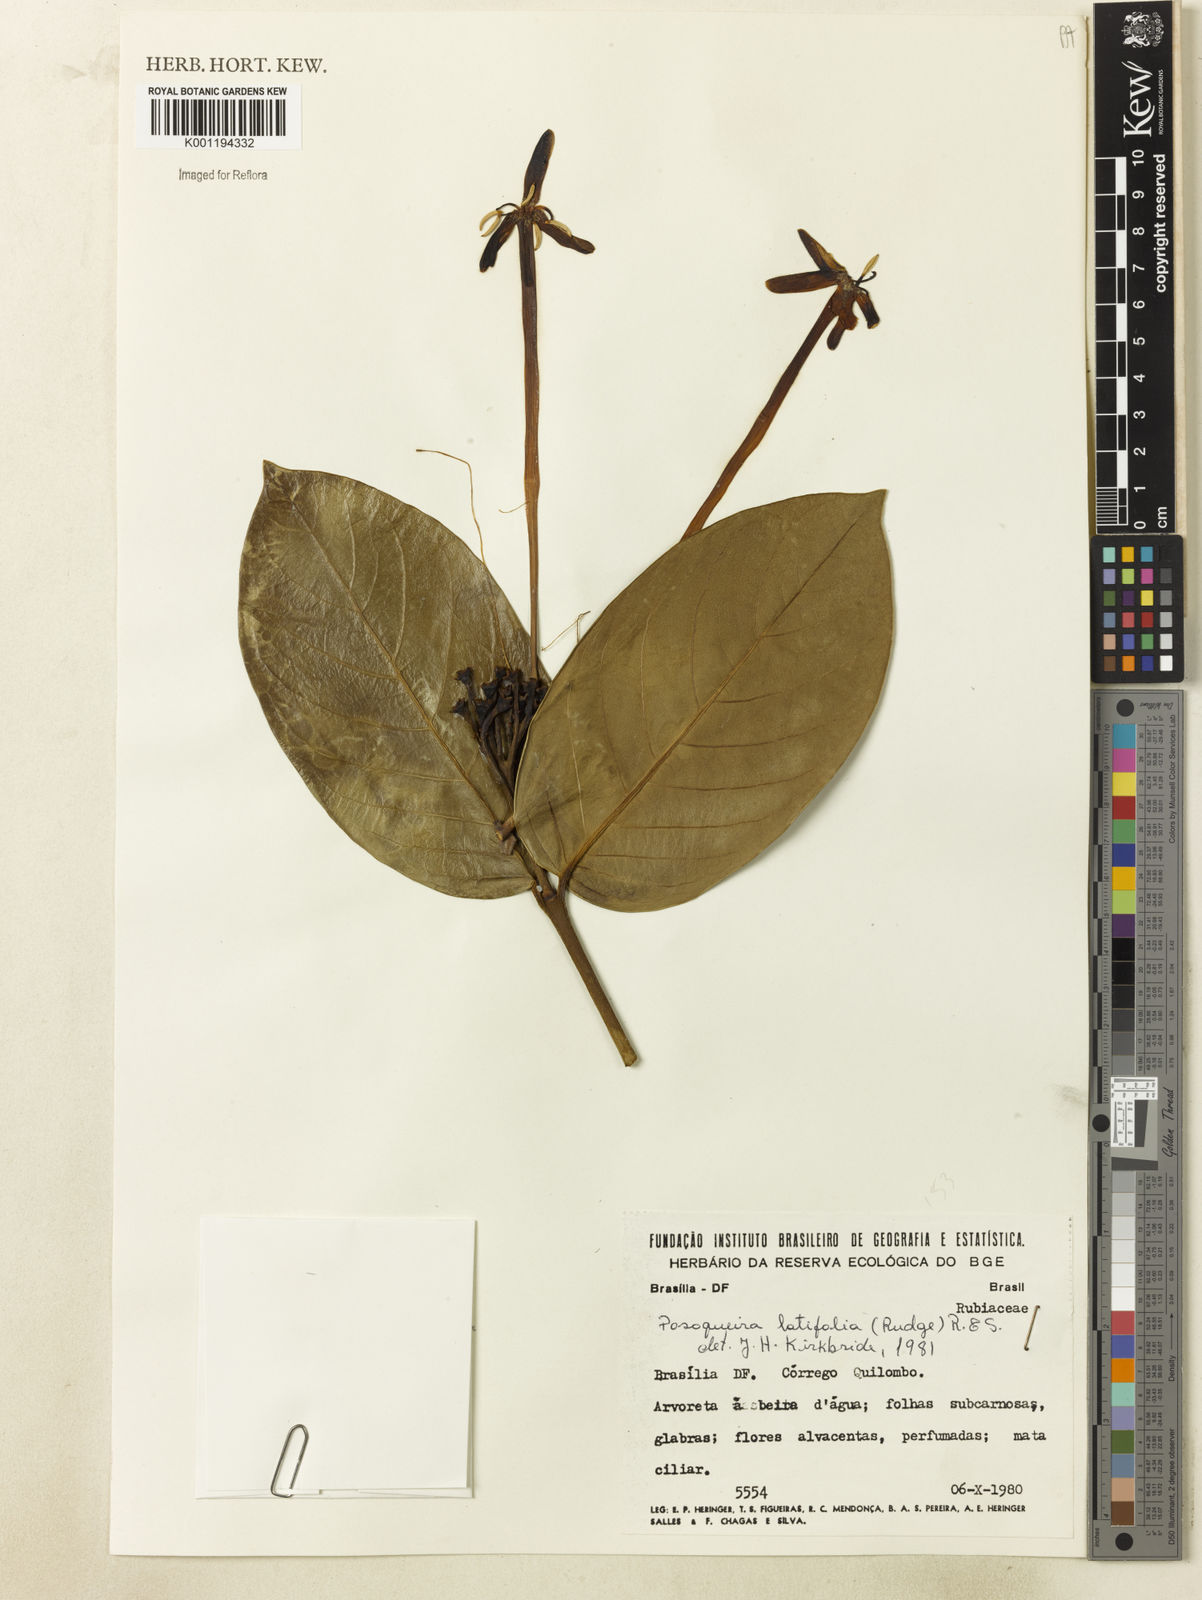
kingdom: Plantae
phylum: Tracheophyta
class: Magnoliopsida
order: Gentianales
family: Rubiaceae
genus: Posoqueria
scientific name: Posoqueria latifolia
